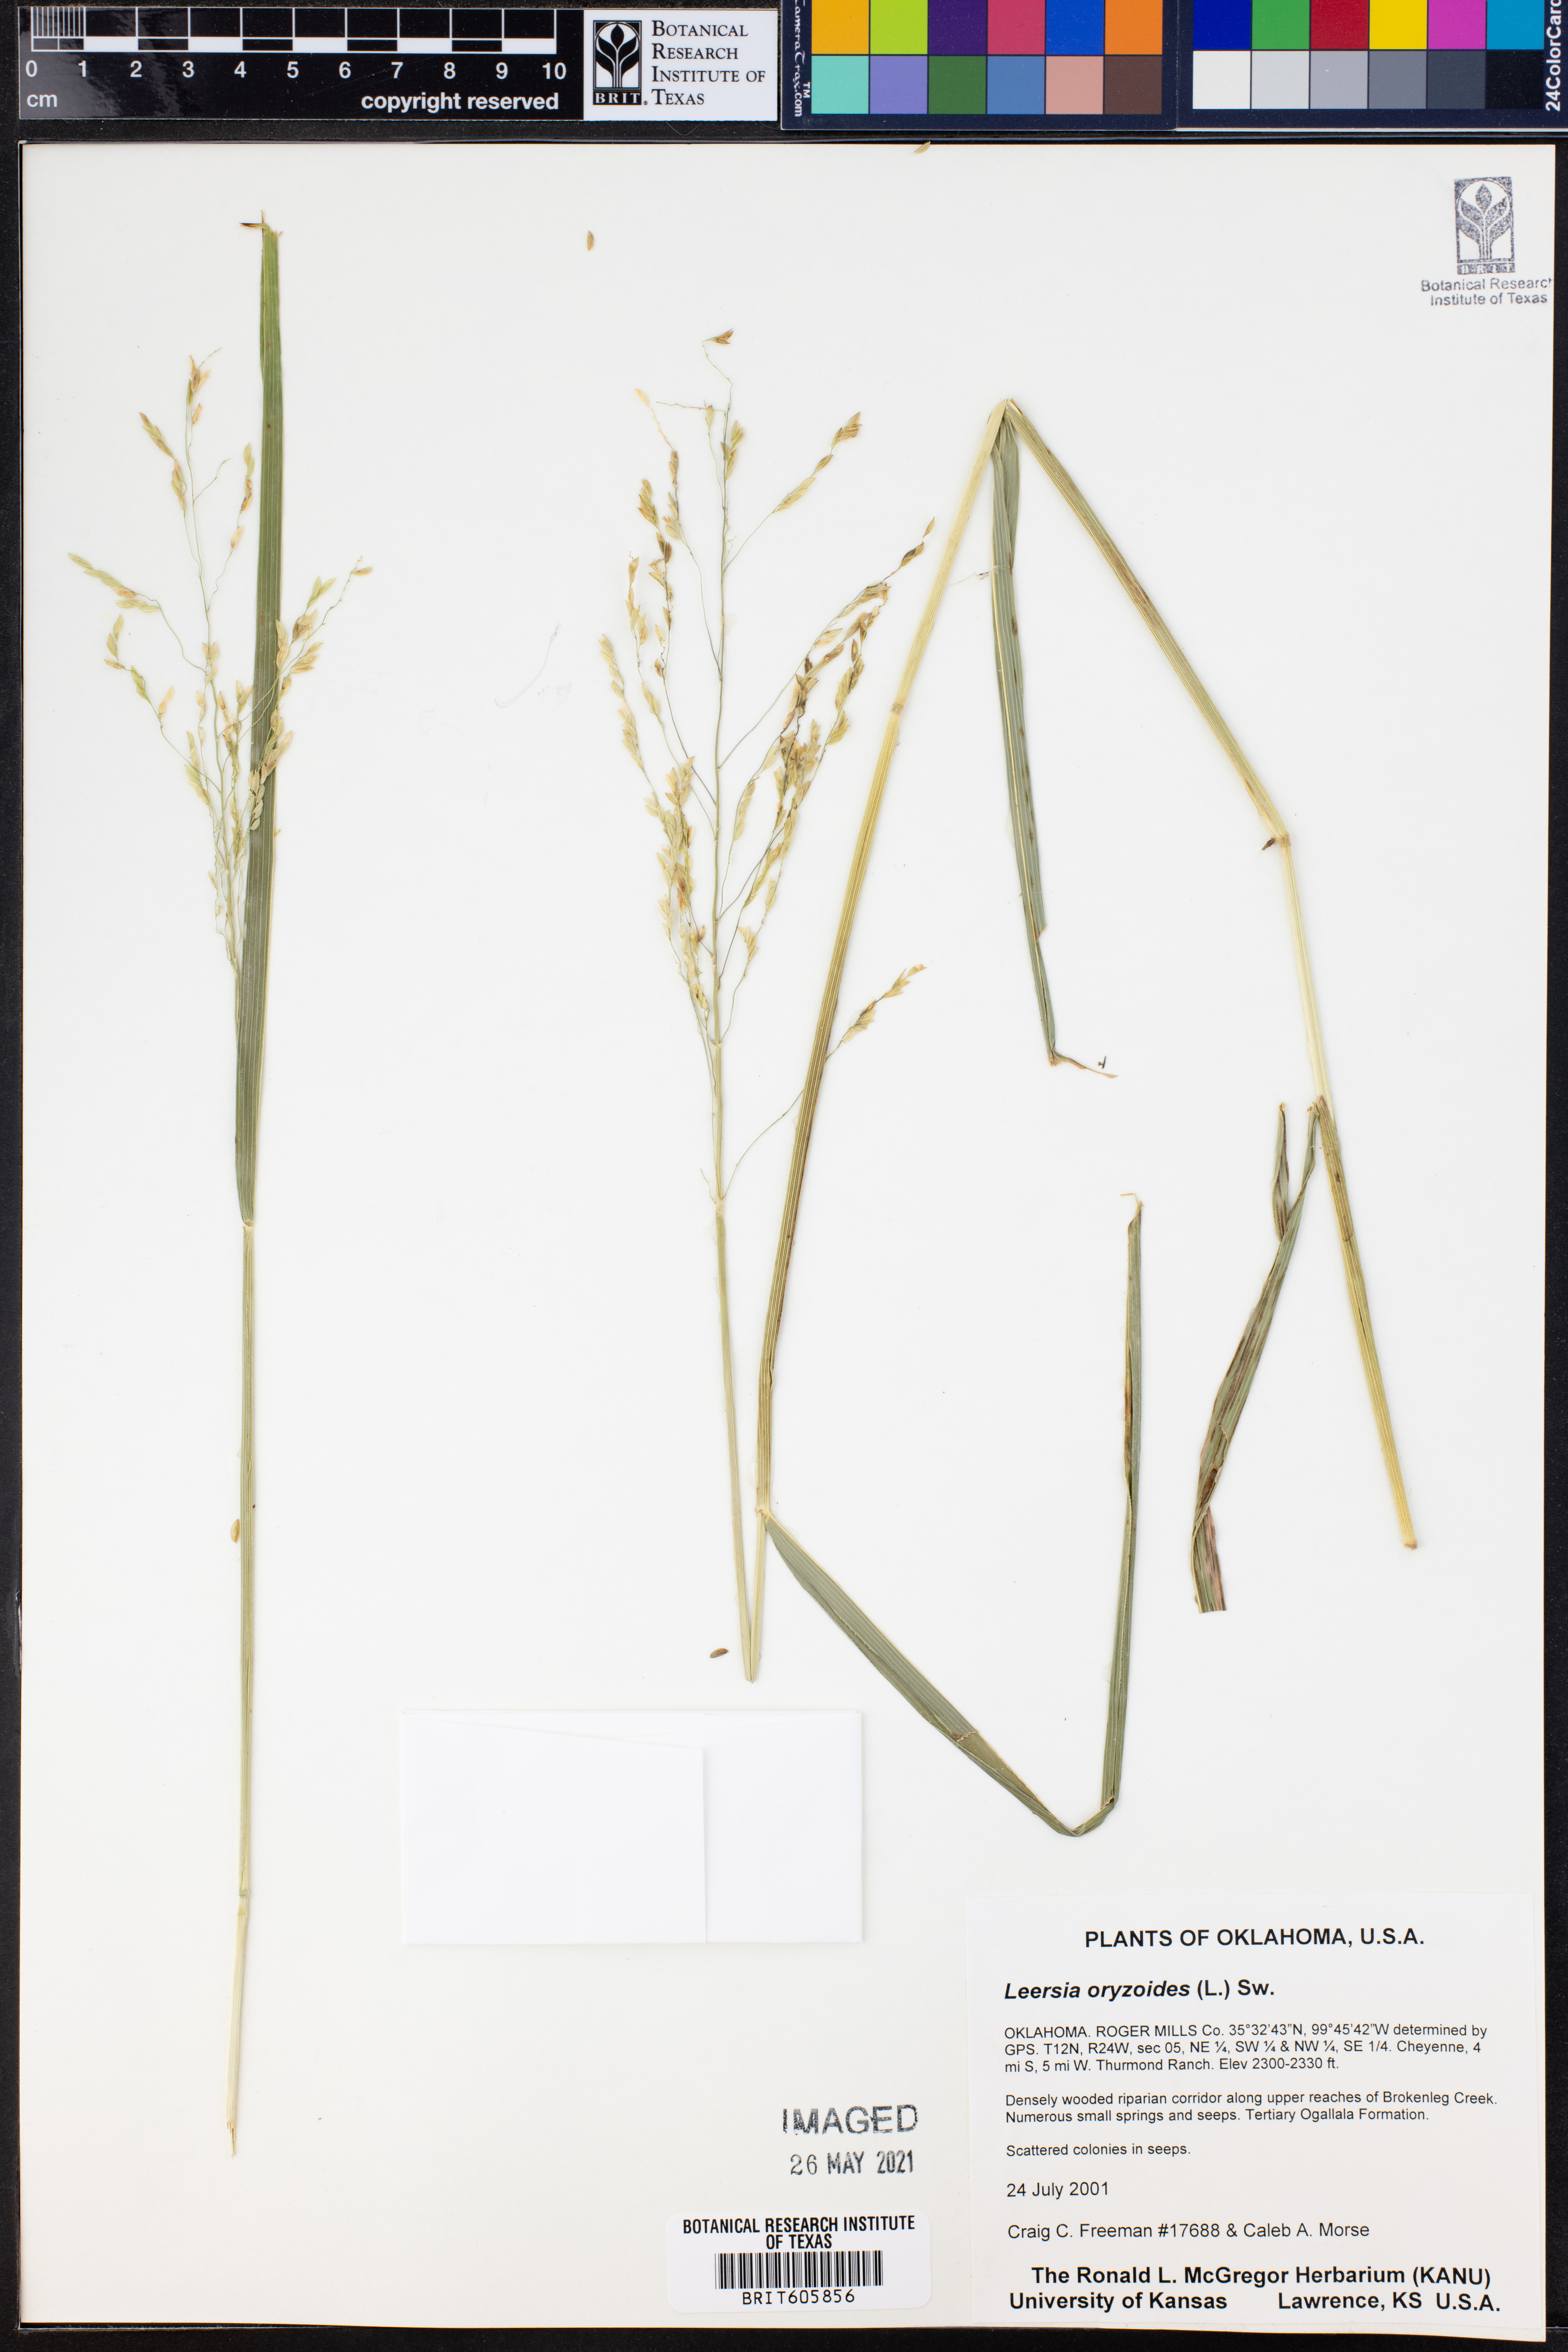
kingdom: Plantae
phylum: Tracheophyta
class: Liliopsida
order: Poales
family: Poaceae
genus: Leersia
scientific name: Leersia oryzoides
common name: Cut-grass
